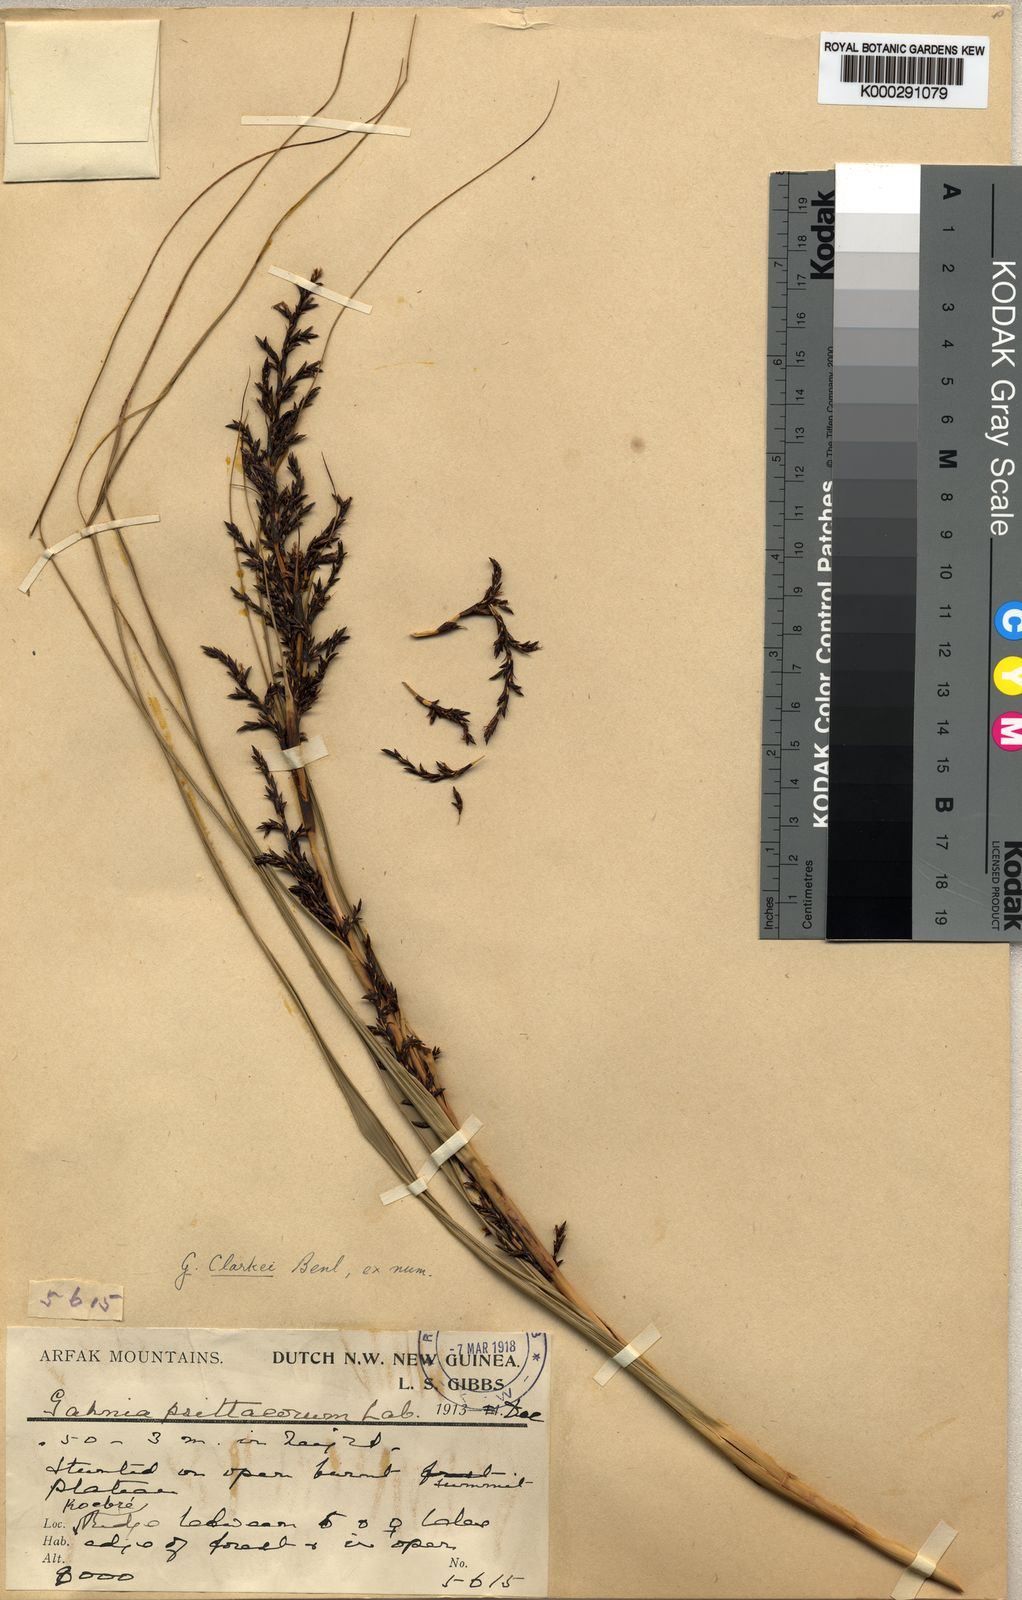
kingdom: Plantae
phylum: Tracheophyta
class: Liliopsida
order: Poales
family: Cyperaceae
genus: Gahnia
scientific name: Gahnia sieberiana
